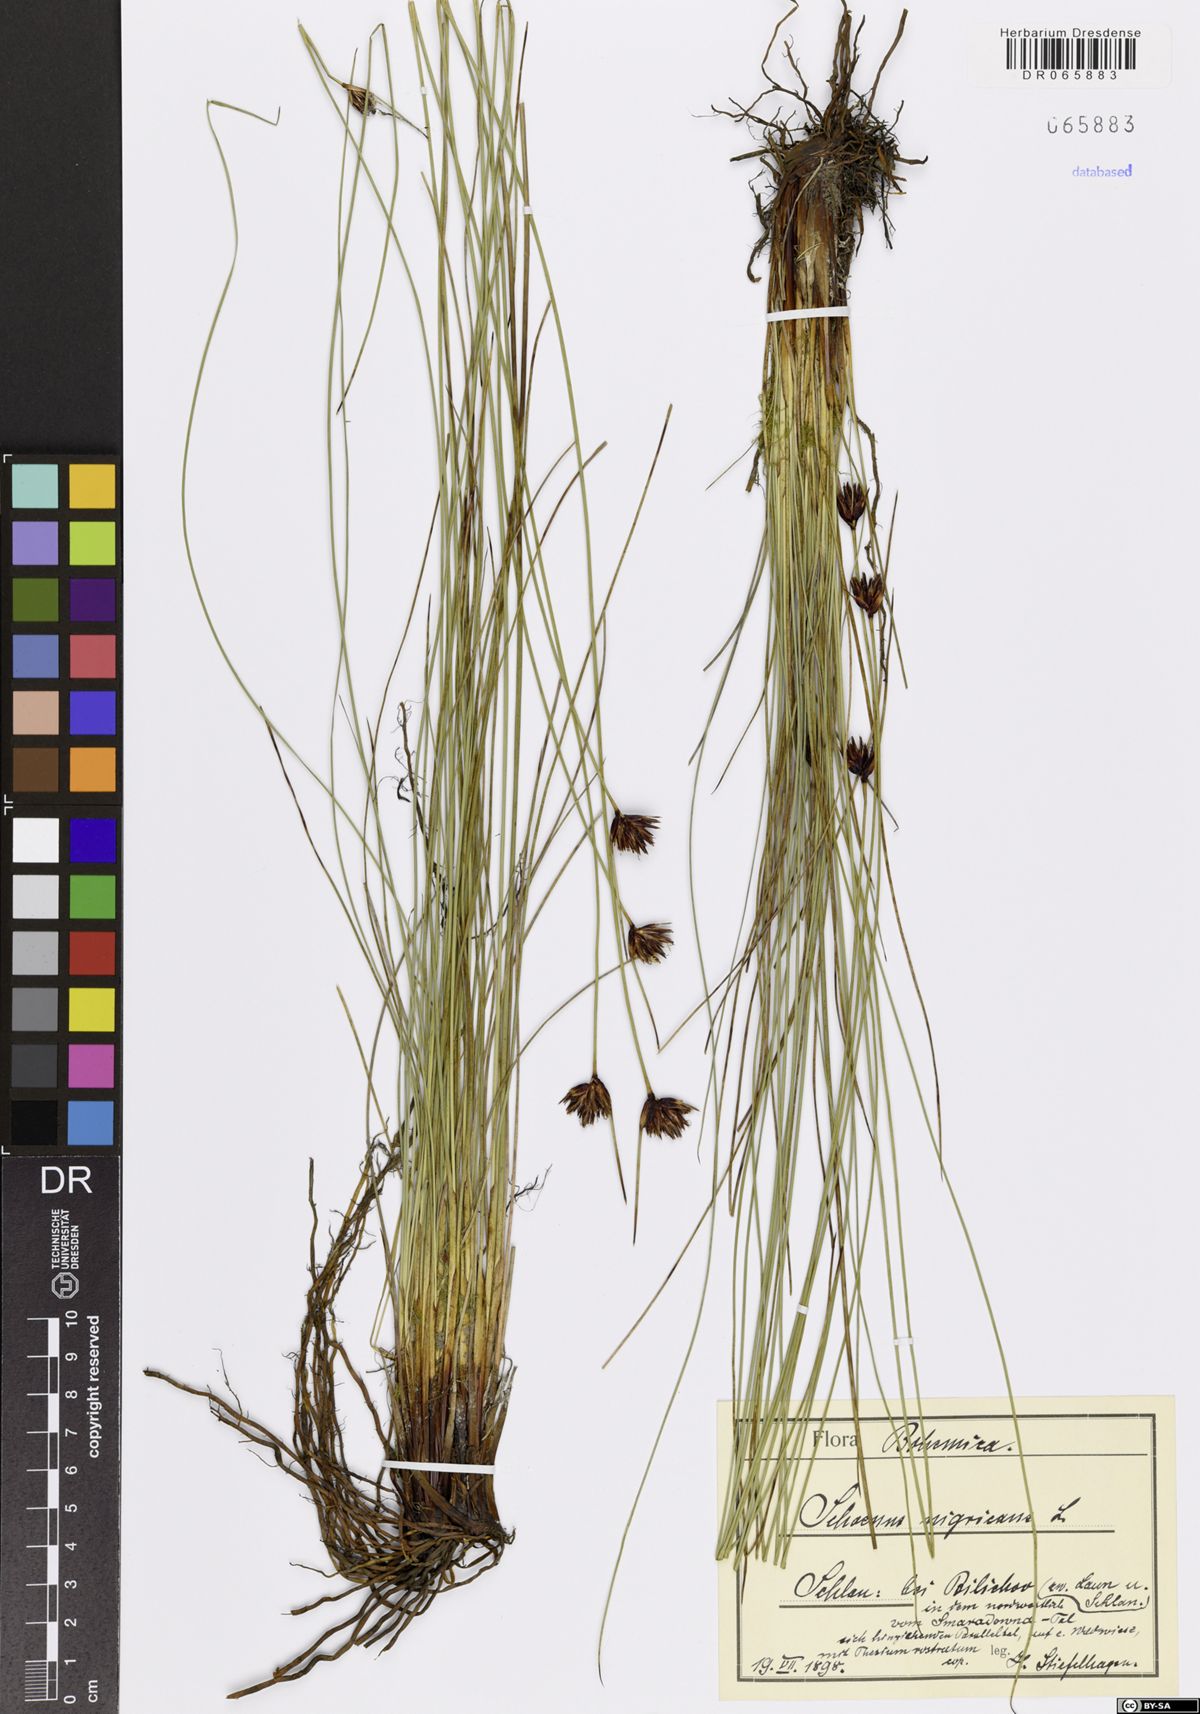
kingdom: Plantae
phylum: Tracheophyta
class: Liliopsida
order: Poales
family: Cyperaceae
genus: Schoenus
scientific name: Schoenus nigricans
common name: Black bog-rush
